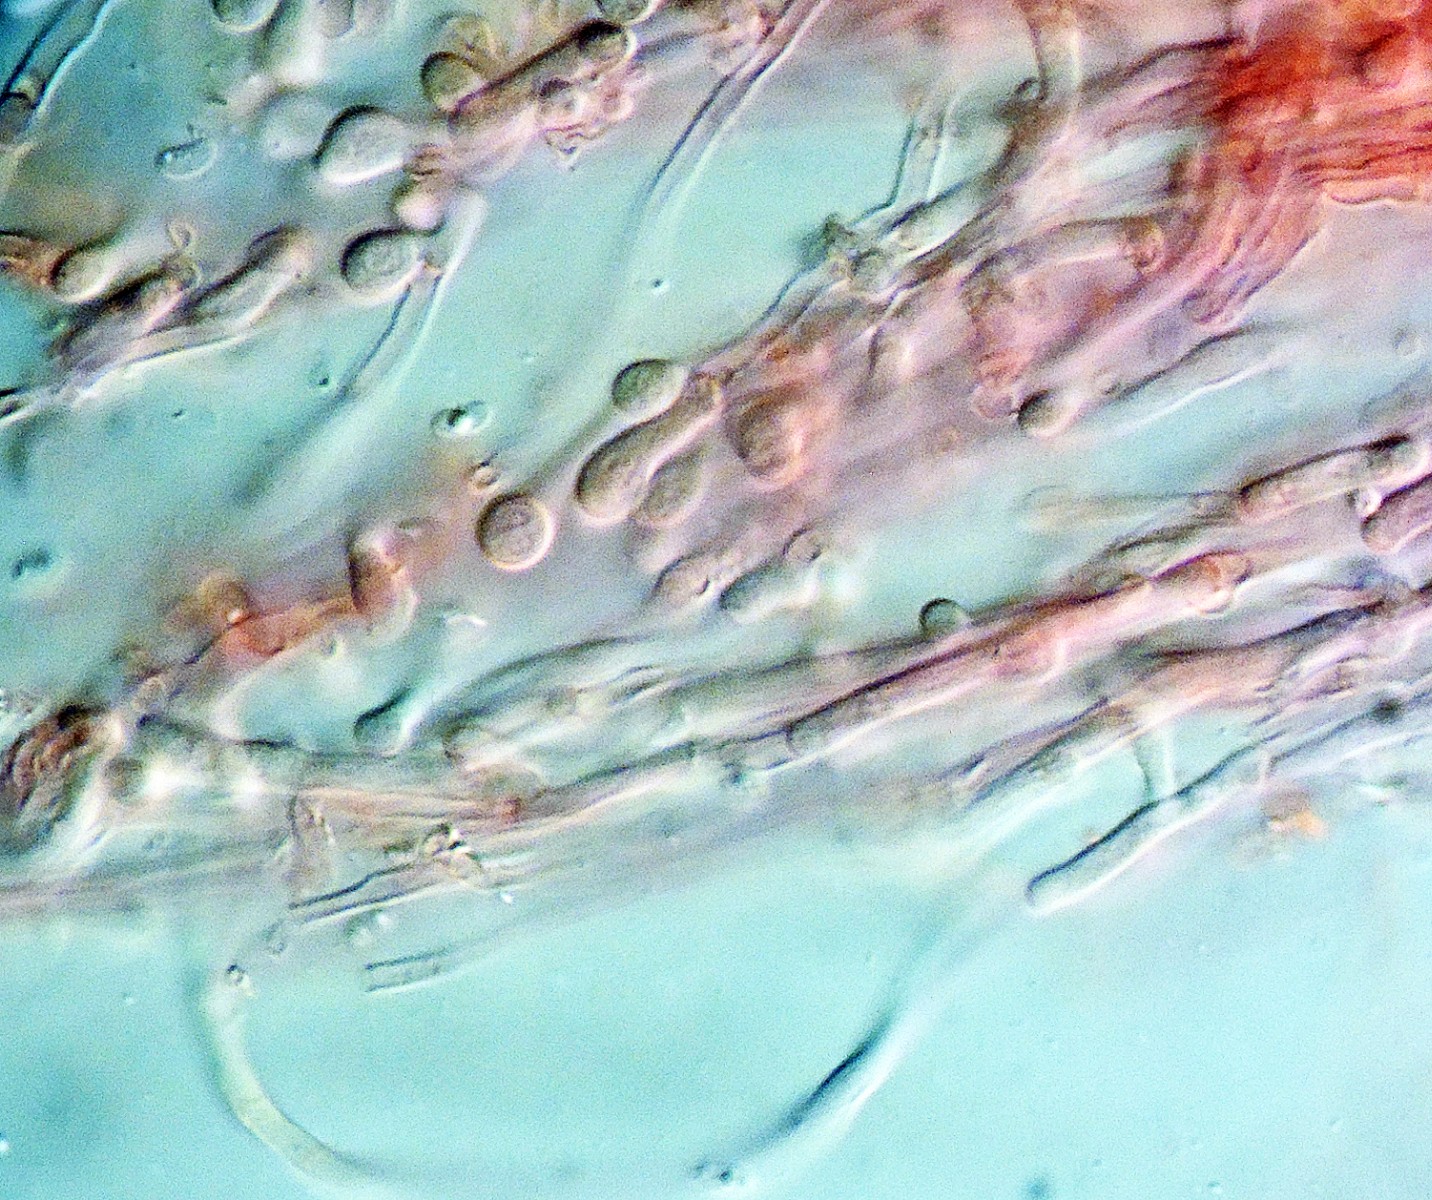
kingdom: Fungi
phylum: Basidiomycota
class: Agaricomycetes
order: Polyporales
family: Meruliaceae
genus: Mycoacia
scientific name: Mycoacia gilvescens
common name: rosa pastelporesvamp
